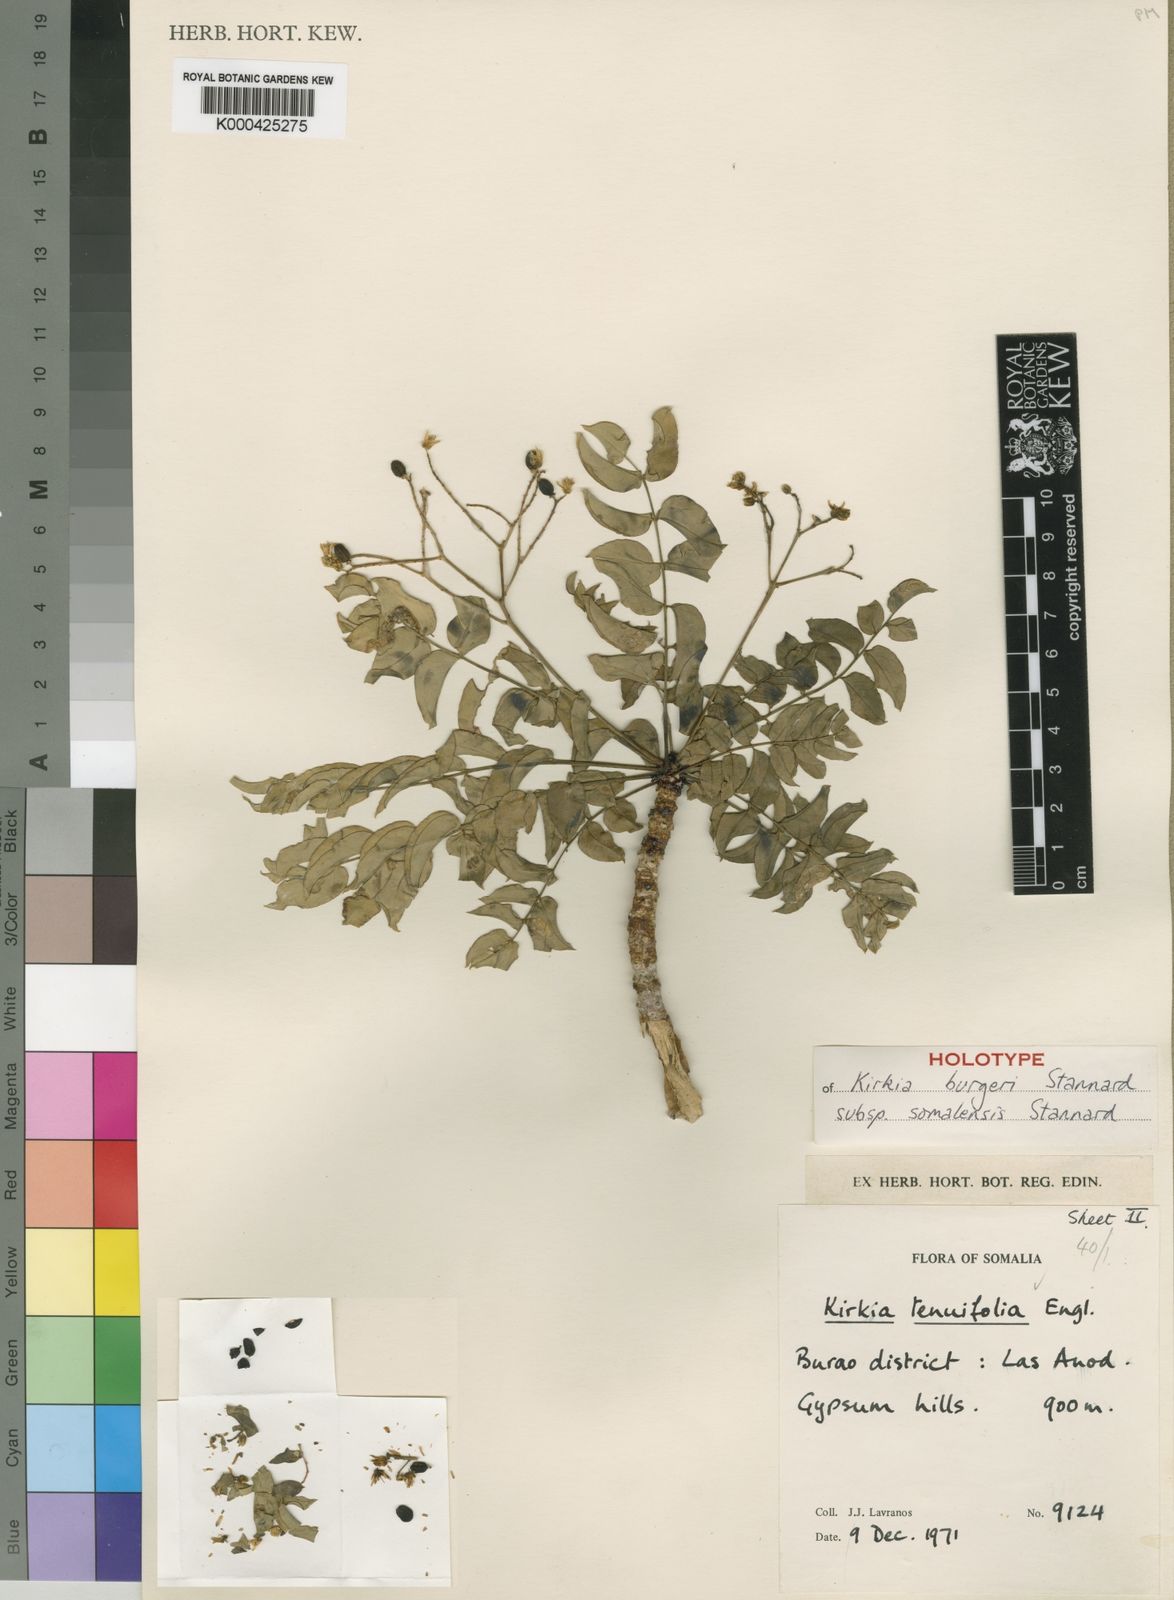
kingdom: Plantae
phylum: Tracheophyta
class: Magnoliopsida
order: Sapindales
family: Kirkiaceae
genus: Kirkia
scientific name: Kirkia burgeri
